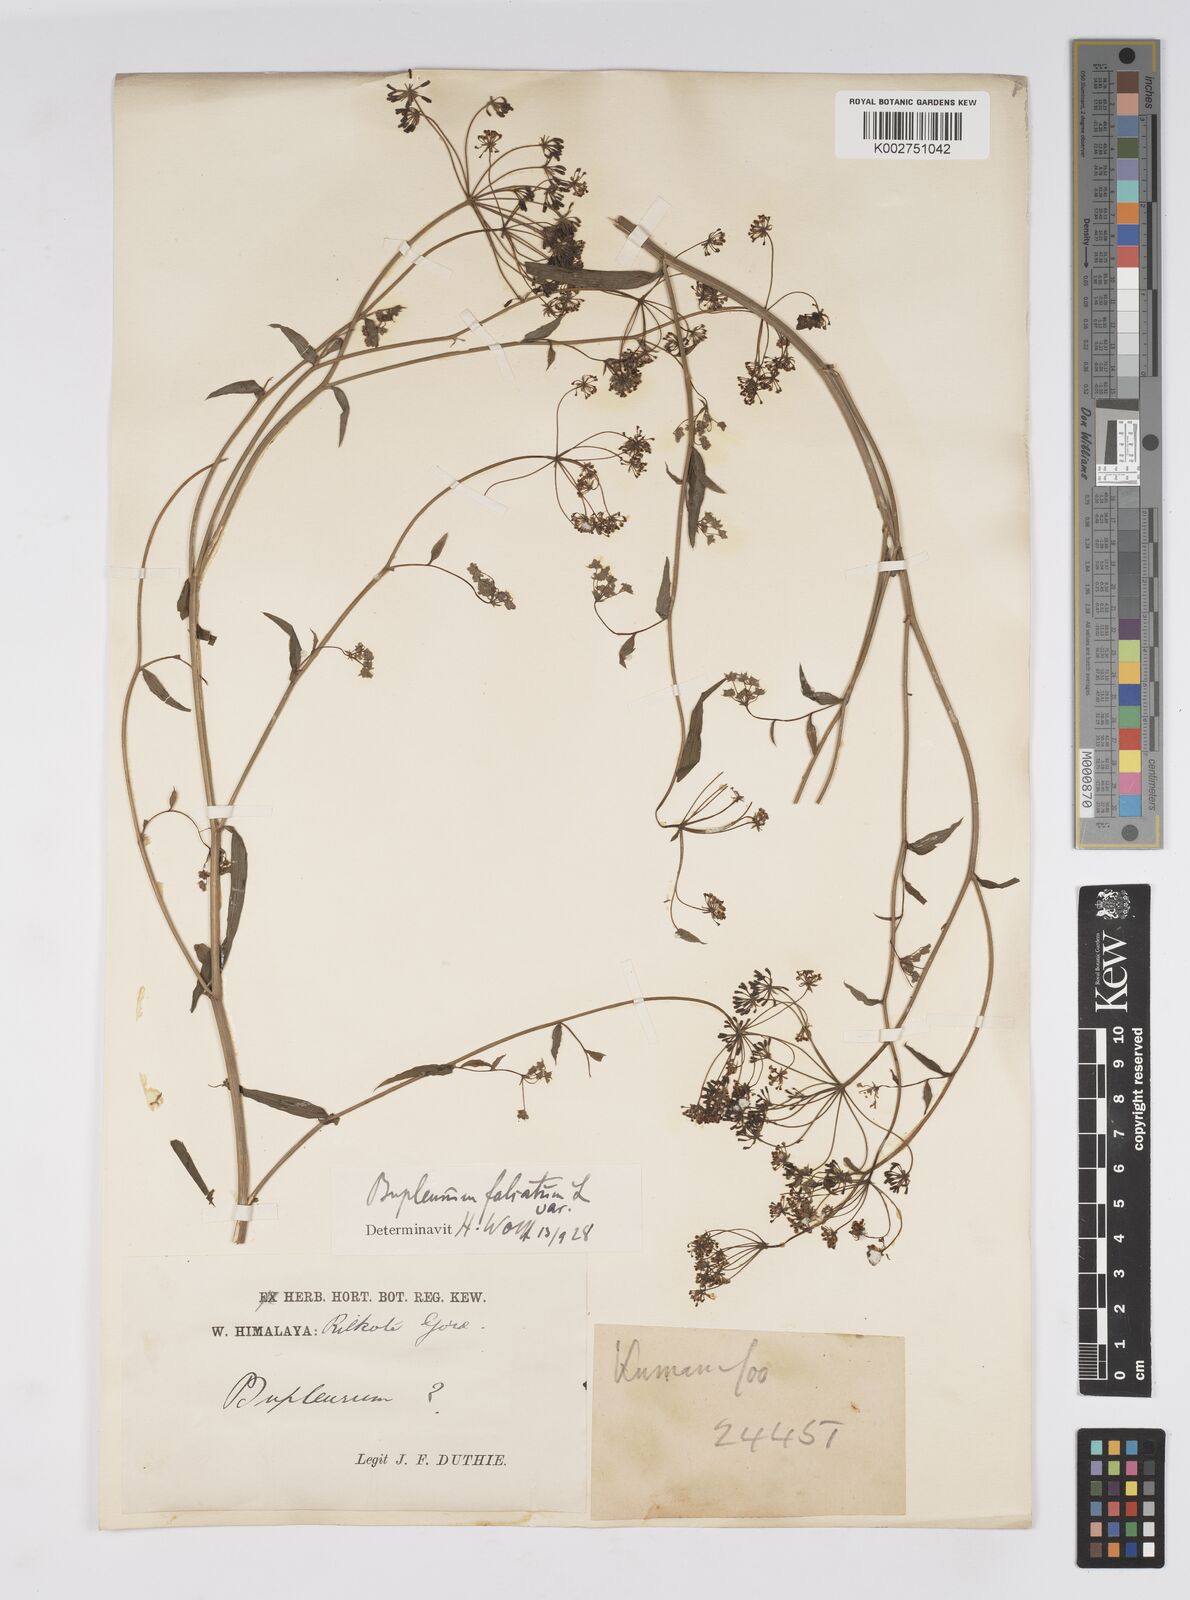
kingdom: Plantae
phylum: Tracheophyta
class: Magnoliopsida
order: Apiales
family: Apiaceae
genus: Bupleurum
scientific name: Bupleurum exaltatum
